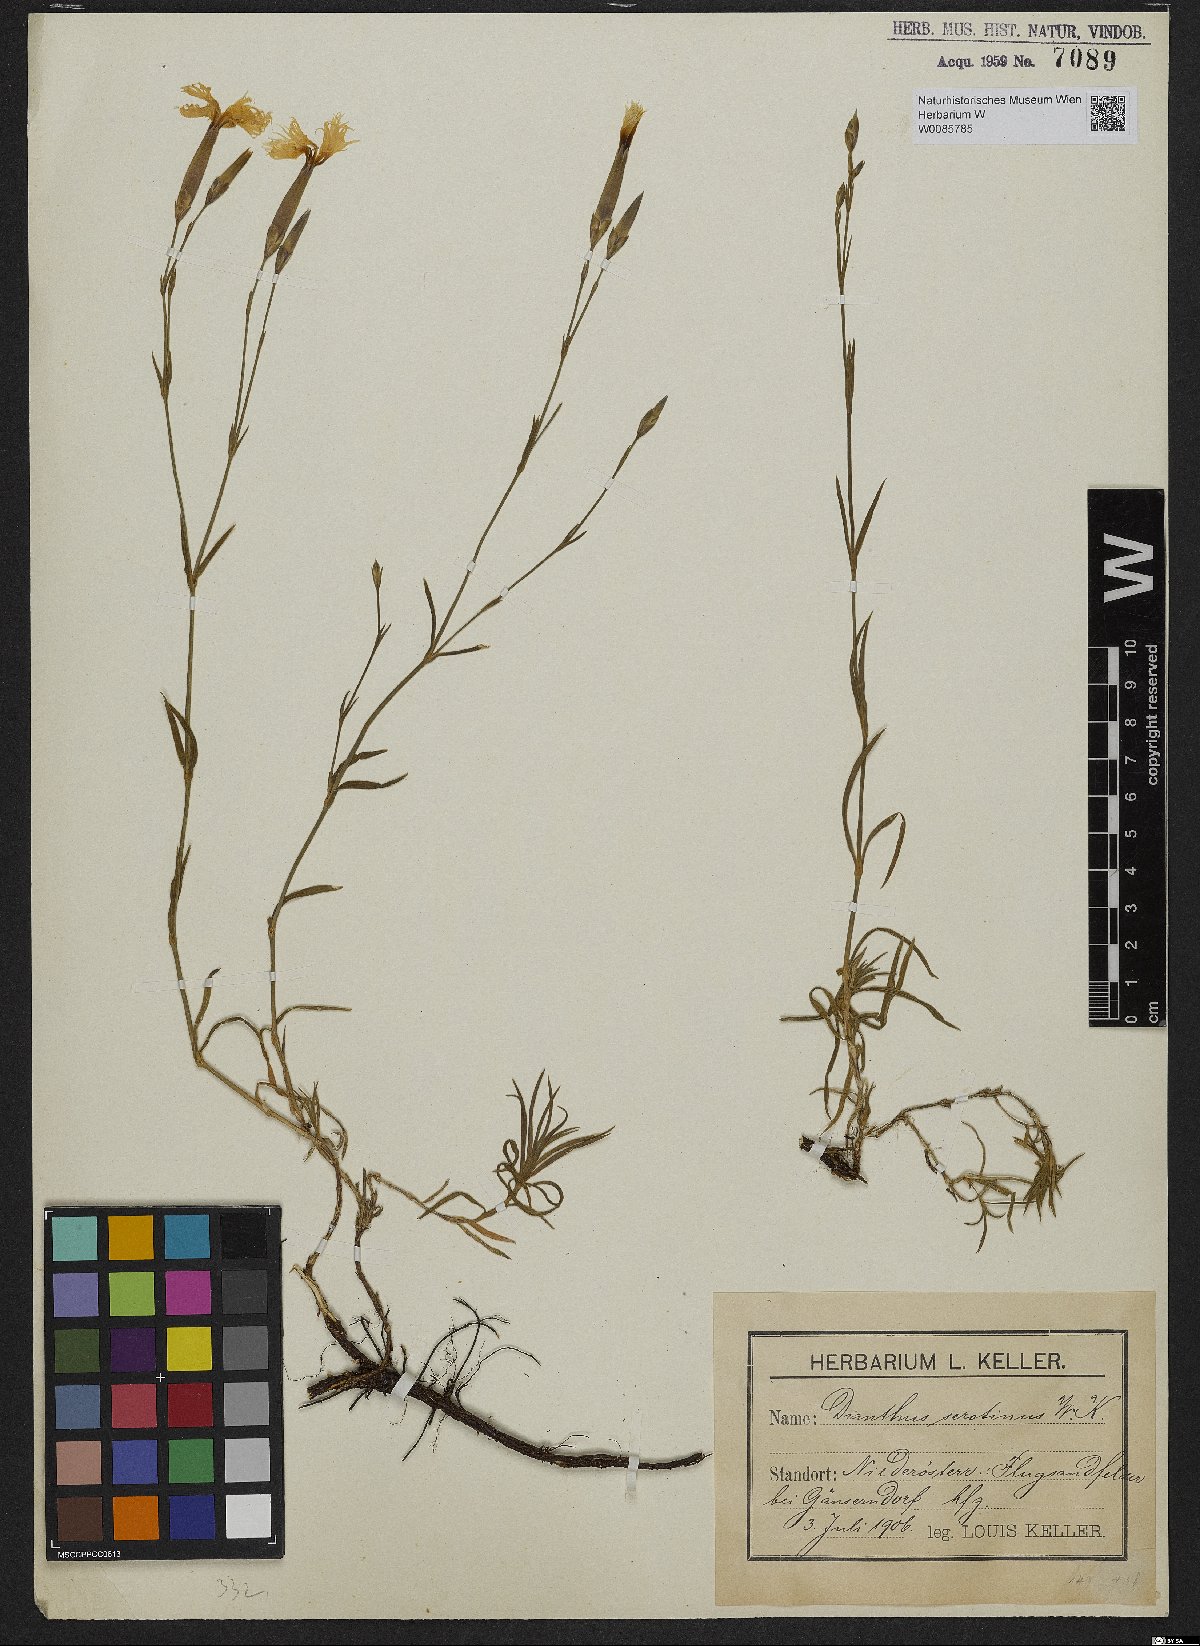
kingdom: Plantae
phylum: Tracheophyta
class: Magnoliopsida
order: Caryophyllales
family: Caryophyllaceae
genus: Dianthus
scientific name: Dianthus serotinus
